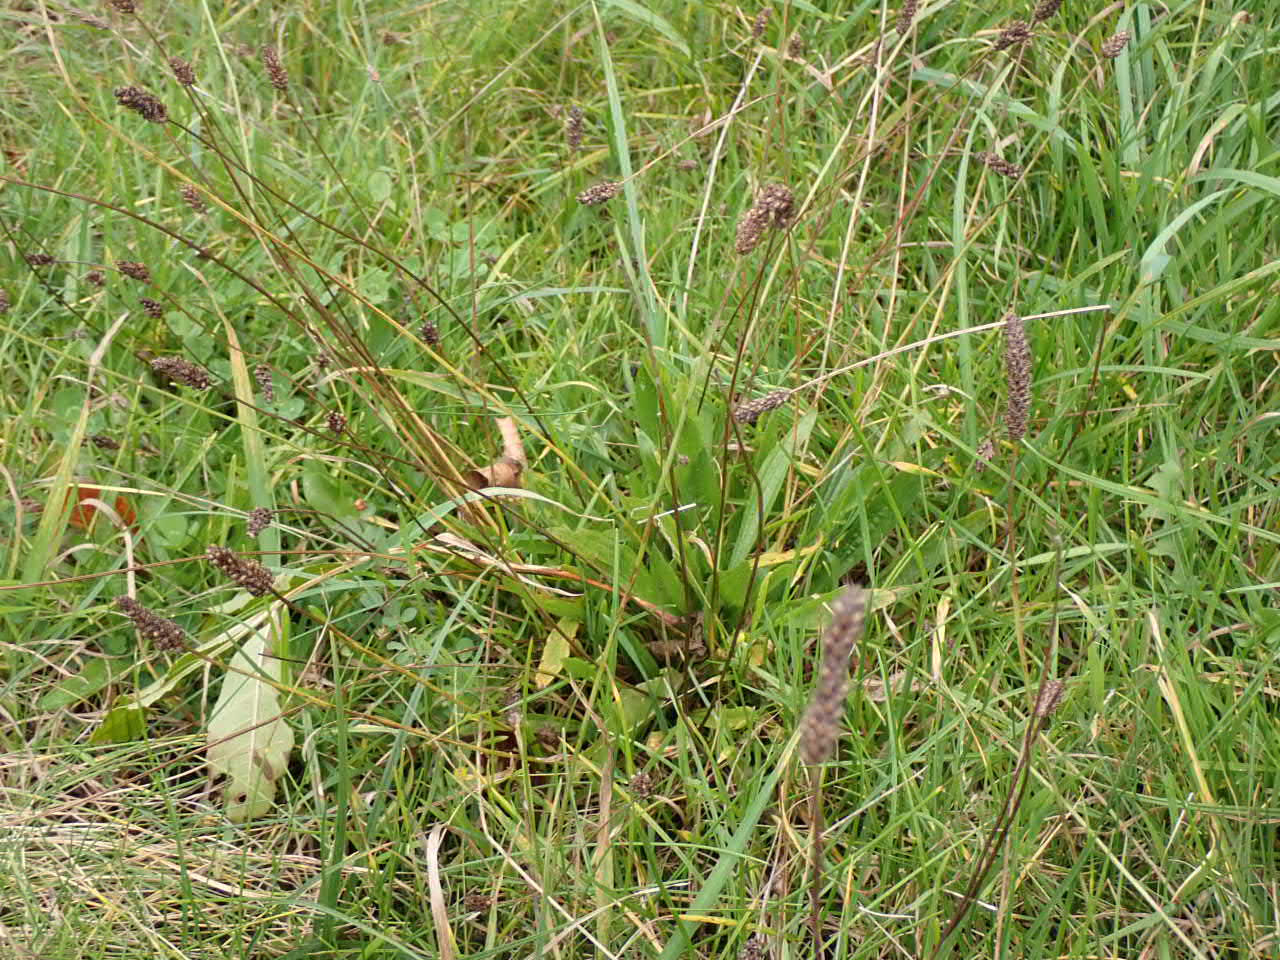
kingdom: Plantae
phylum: Tracheophyta
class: Magnoliopsida
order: Lamiales
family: Plantaginaceae
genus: Plantago
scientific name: Plantago lanceolata
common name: Lancet-vejbred
